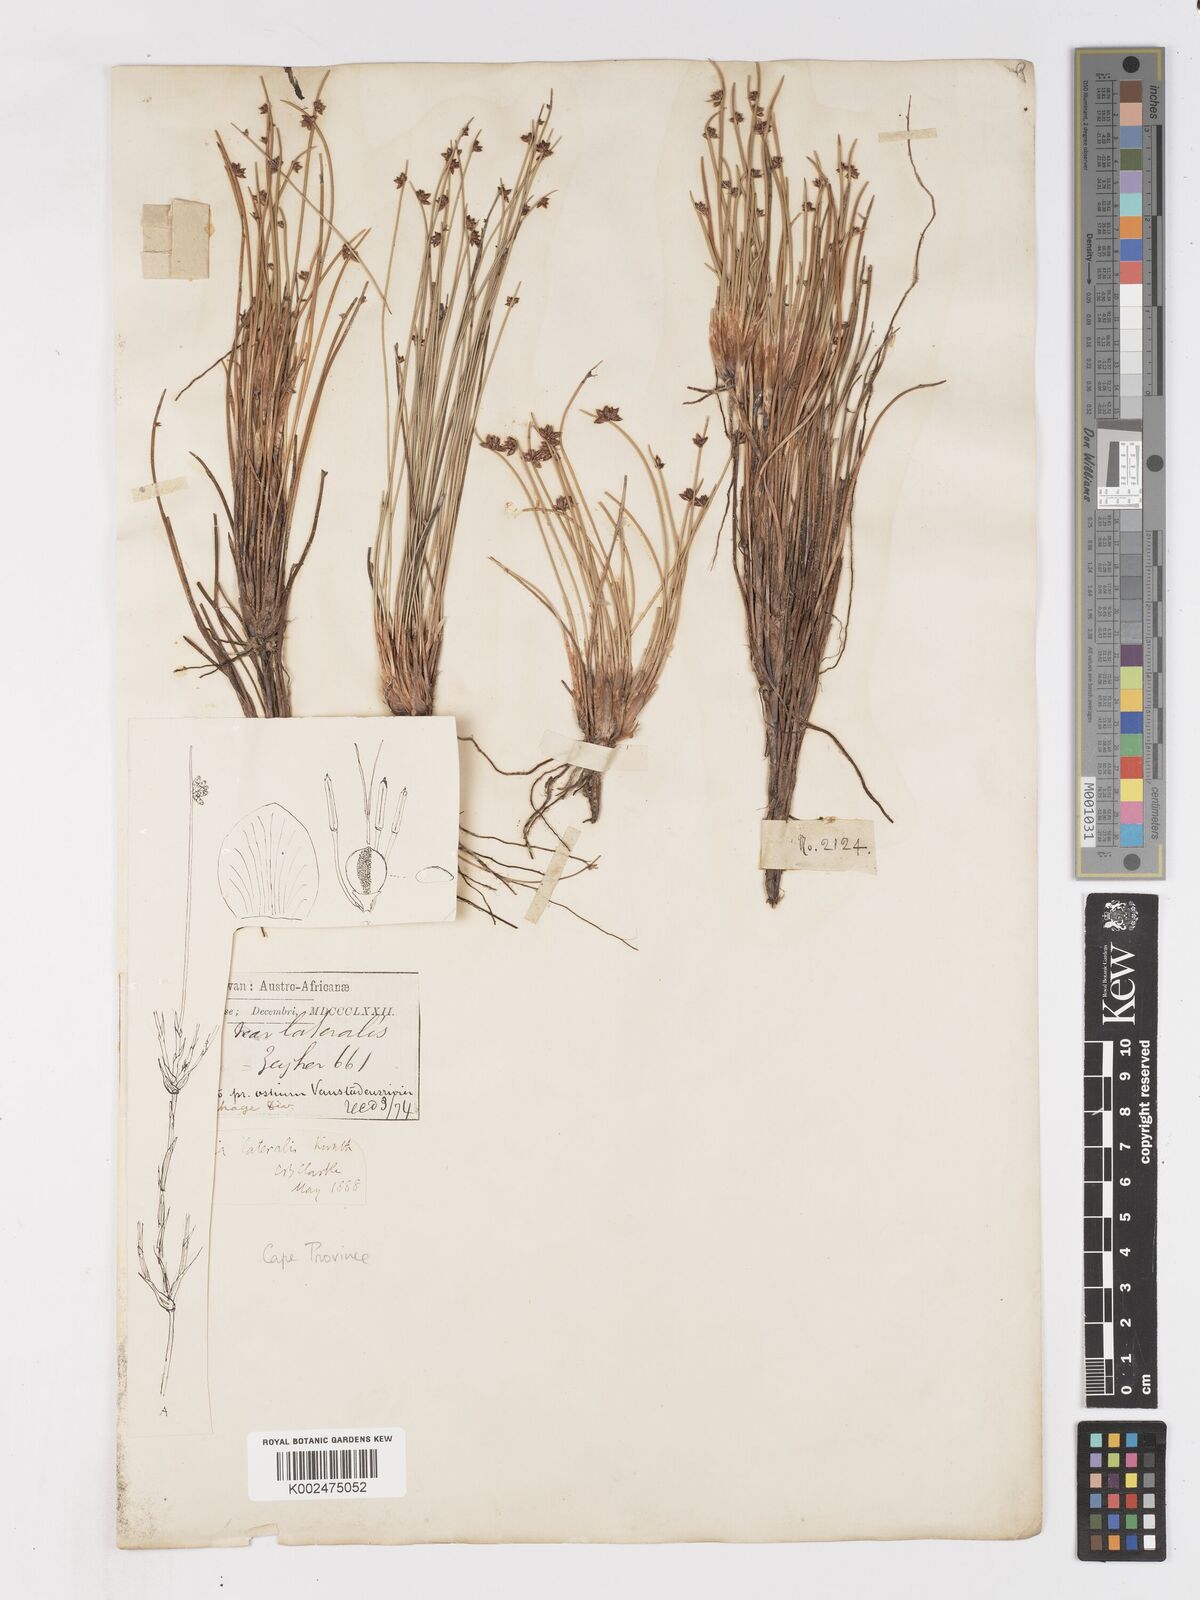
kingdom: Plantae
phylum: Tracheophyta
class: Liliopsida
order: Poales
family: Cyperaceae
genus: Ficinia
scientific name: Ficinia lateralis
